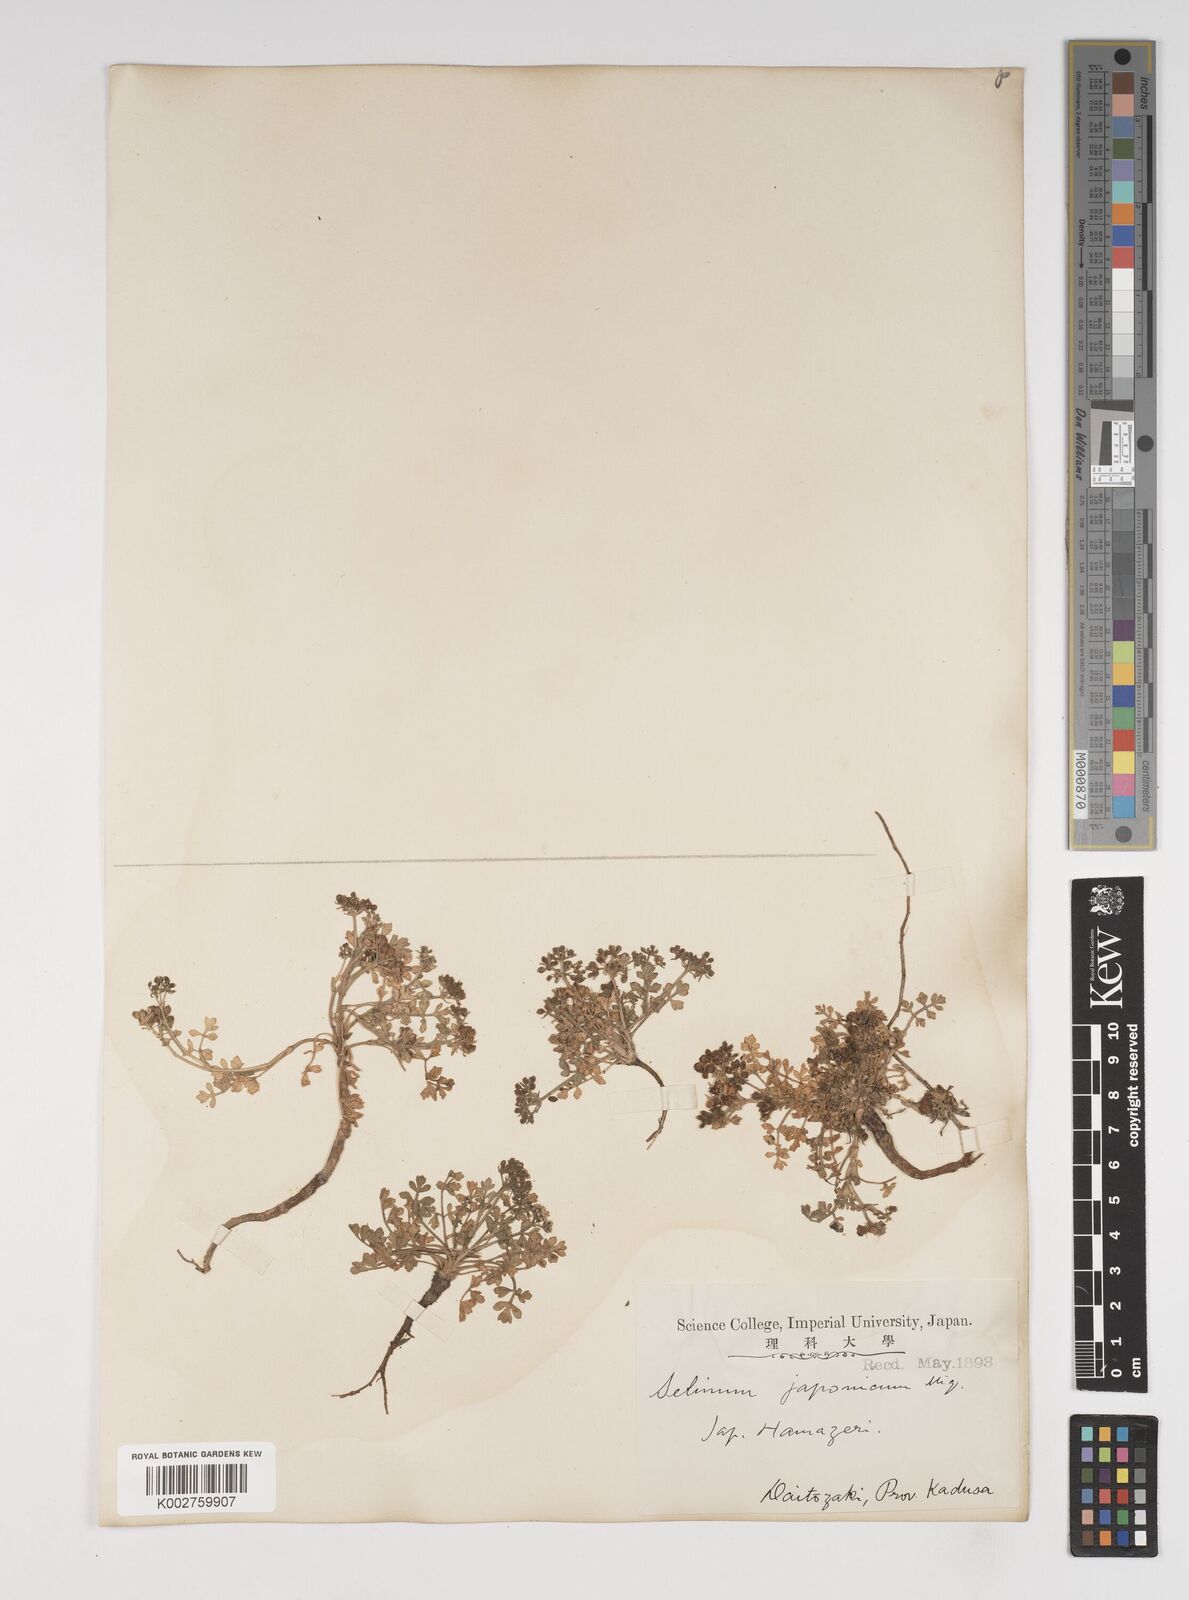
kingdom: Plantae
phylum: Tracheophyta
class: Magnoliopsida
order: Apiales
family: Apiaceae
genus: Cnidium
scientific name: Cnidium japonicum
